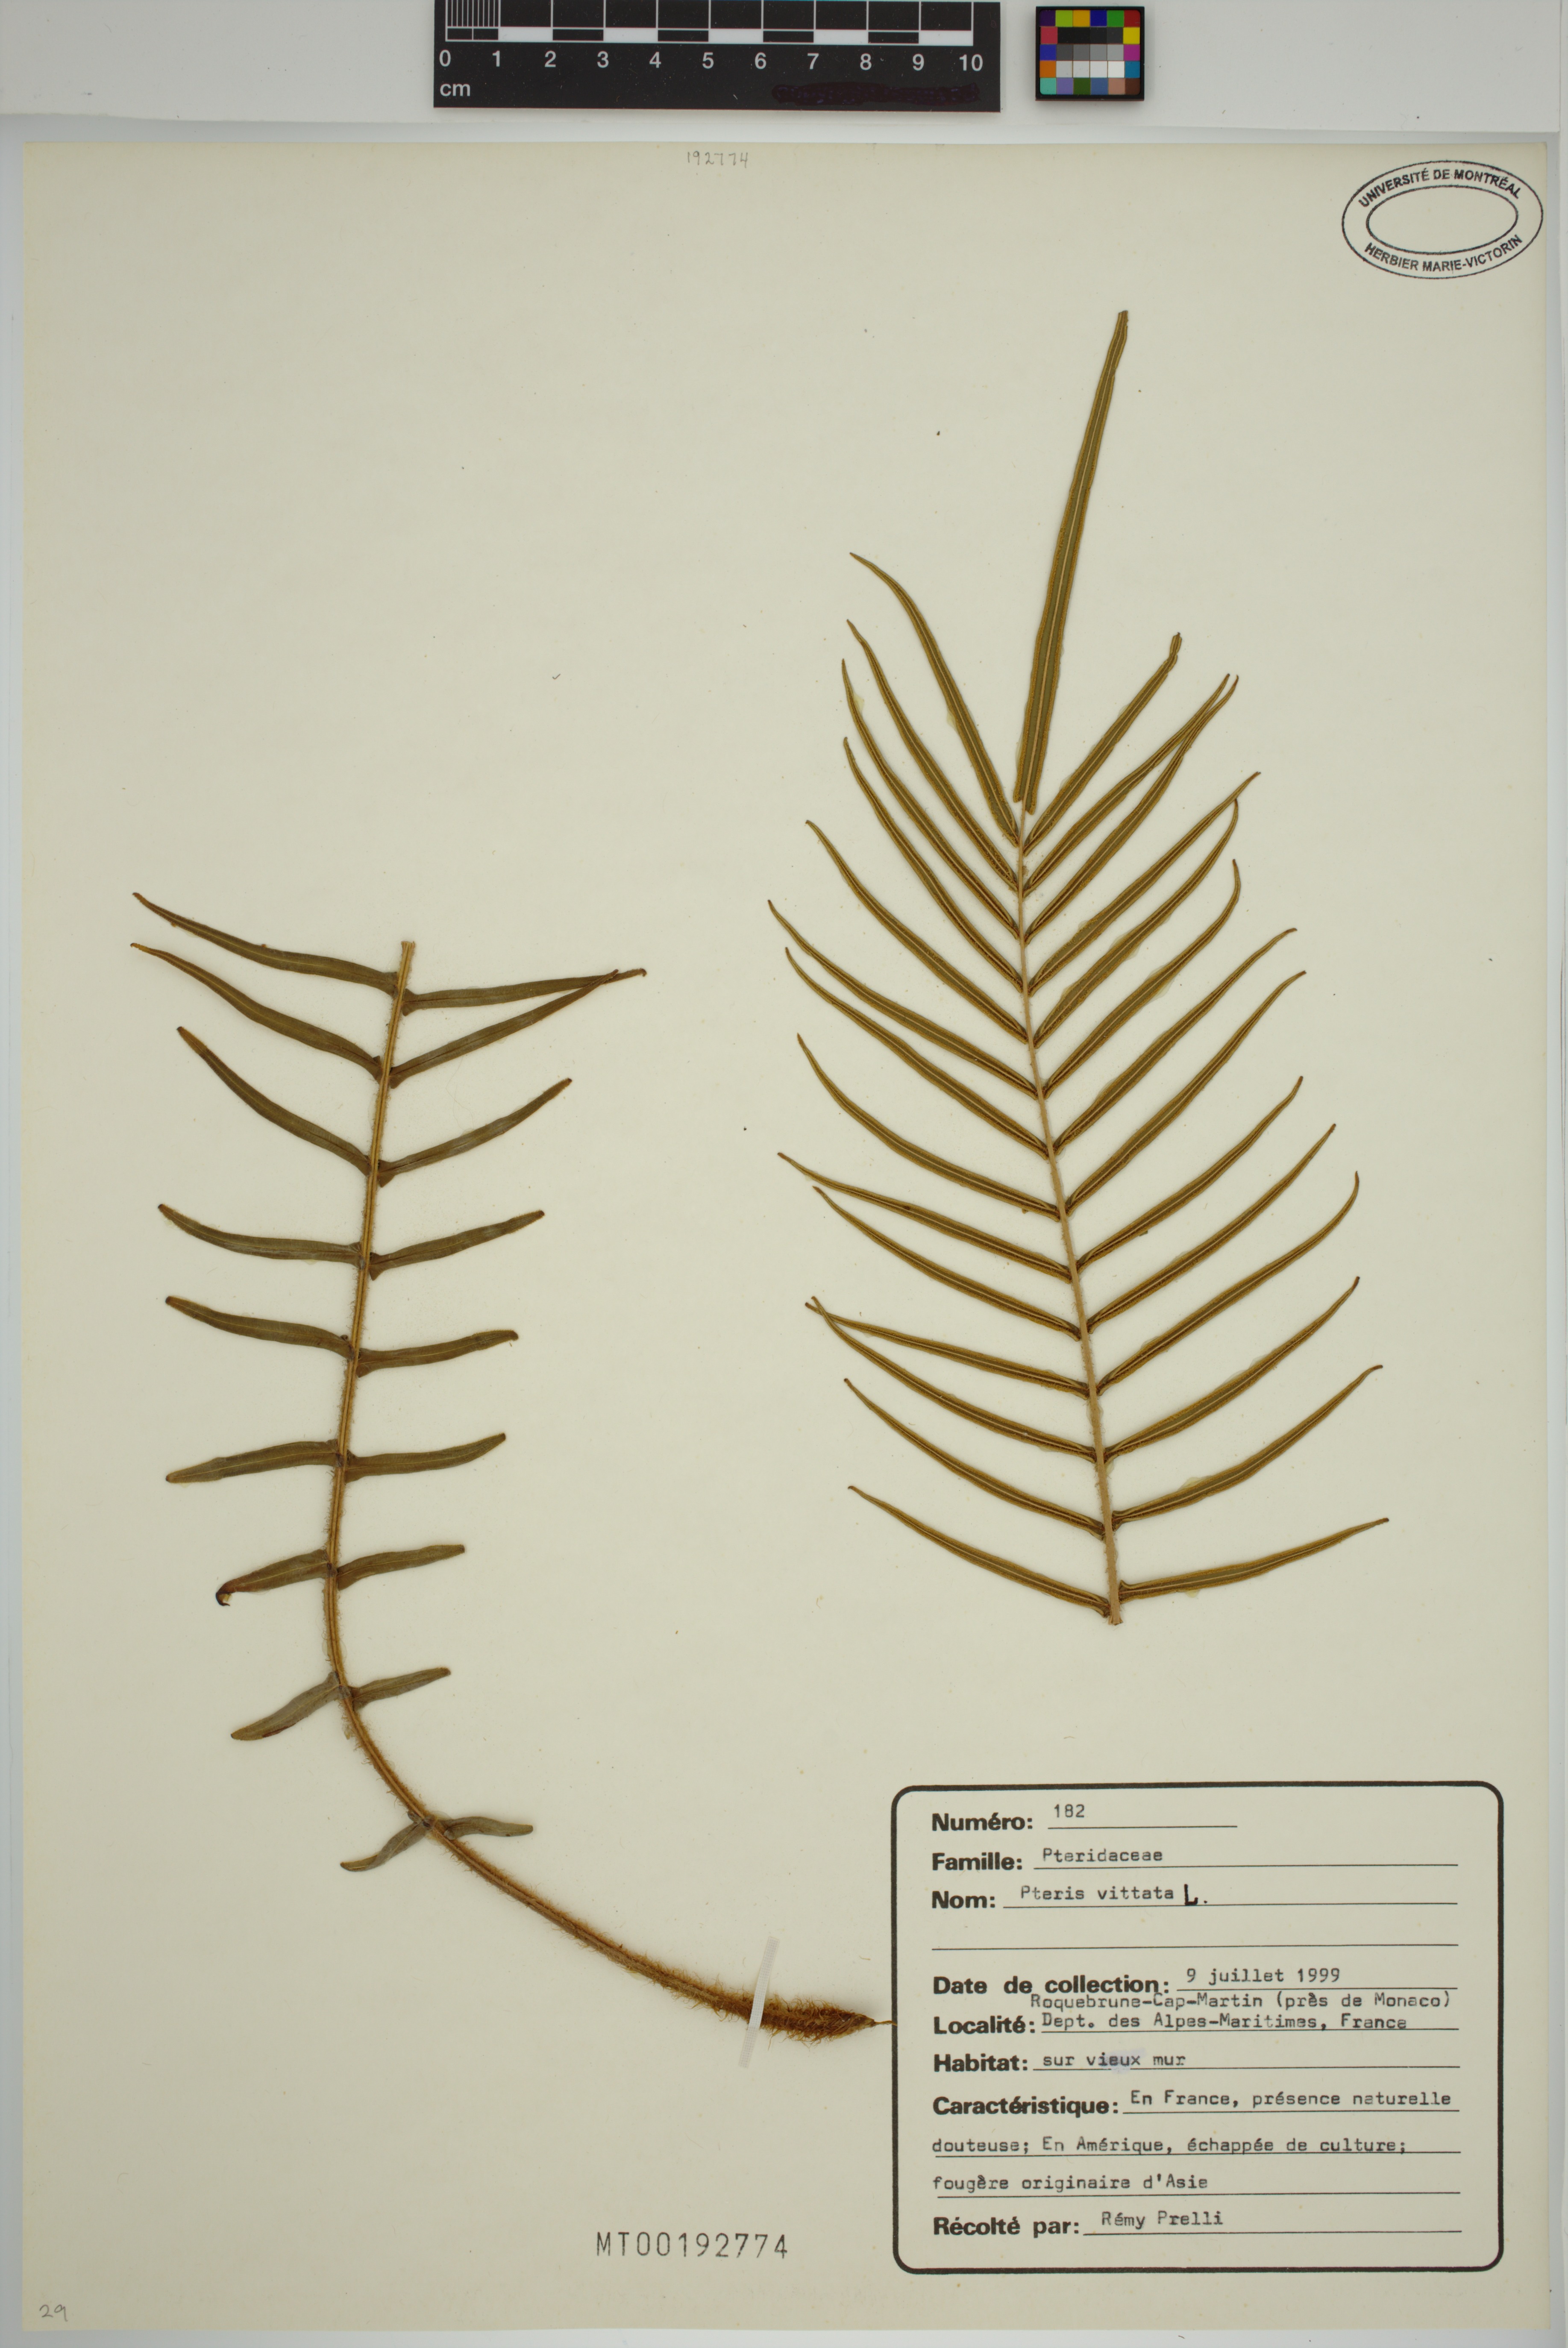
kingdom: Plantae
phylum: Tracheophyta
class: Polypodiopsida
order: Polypodiales
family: Pteridaceae
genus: Pteris
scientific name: Pteris vittata
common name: Ladder brake
